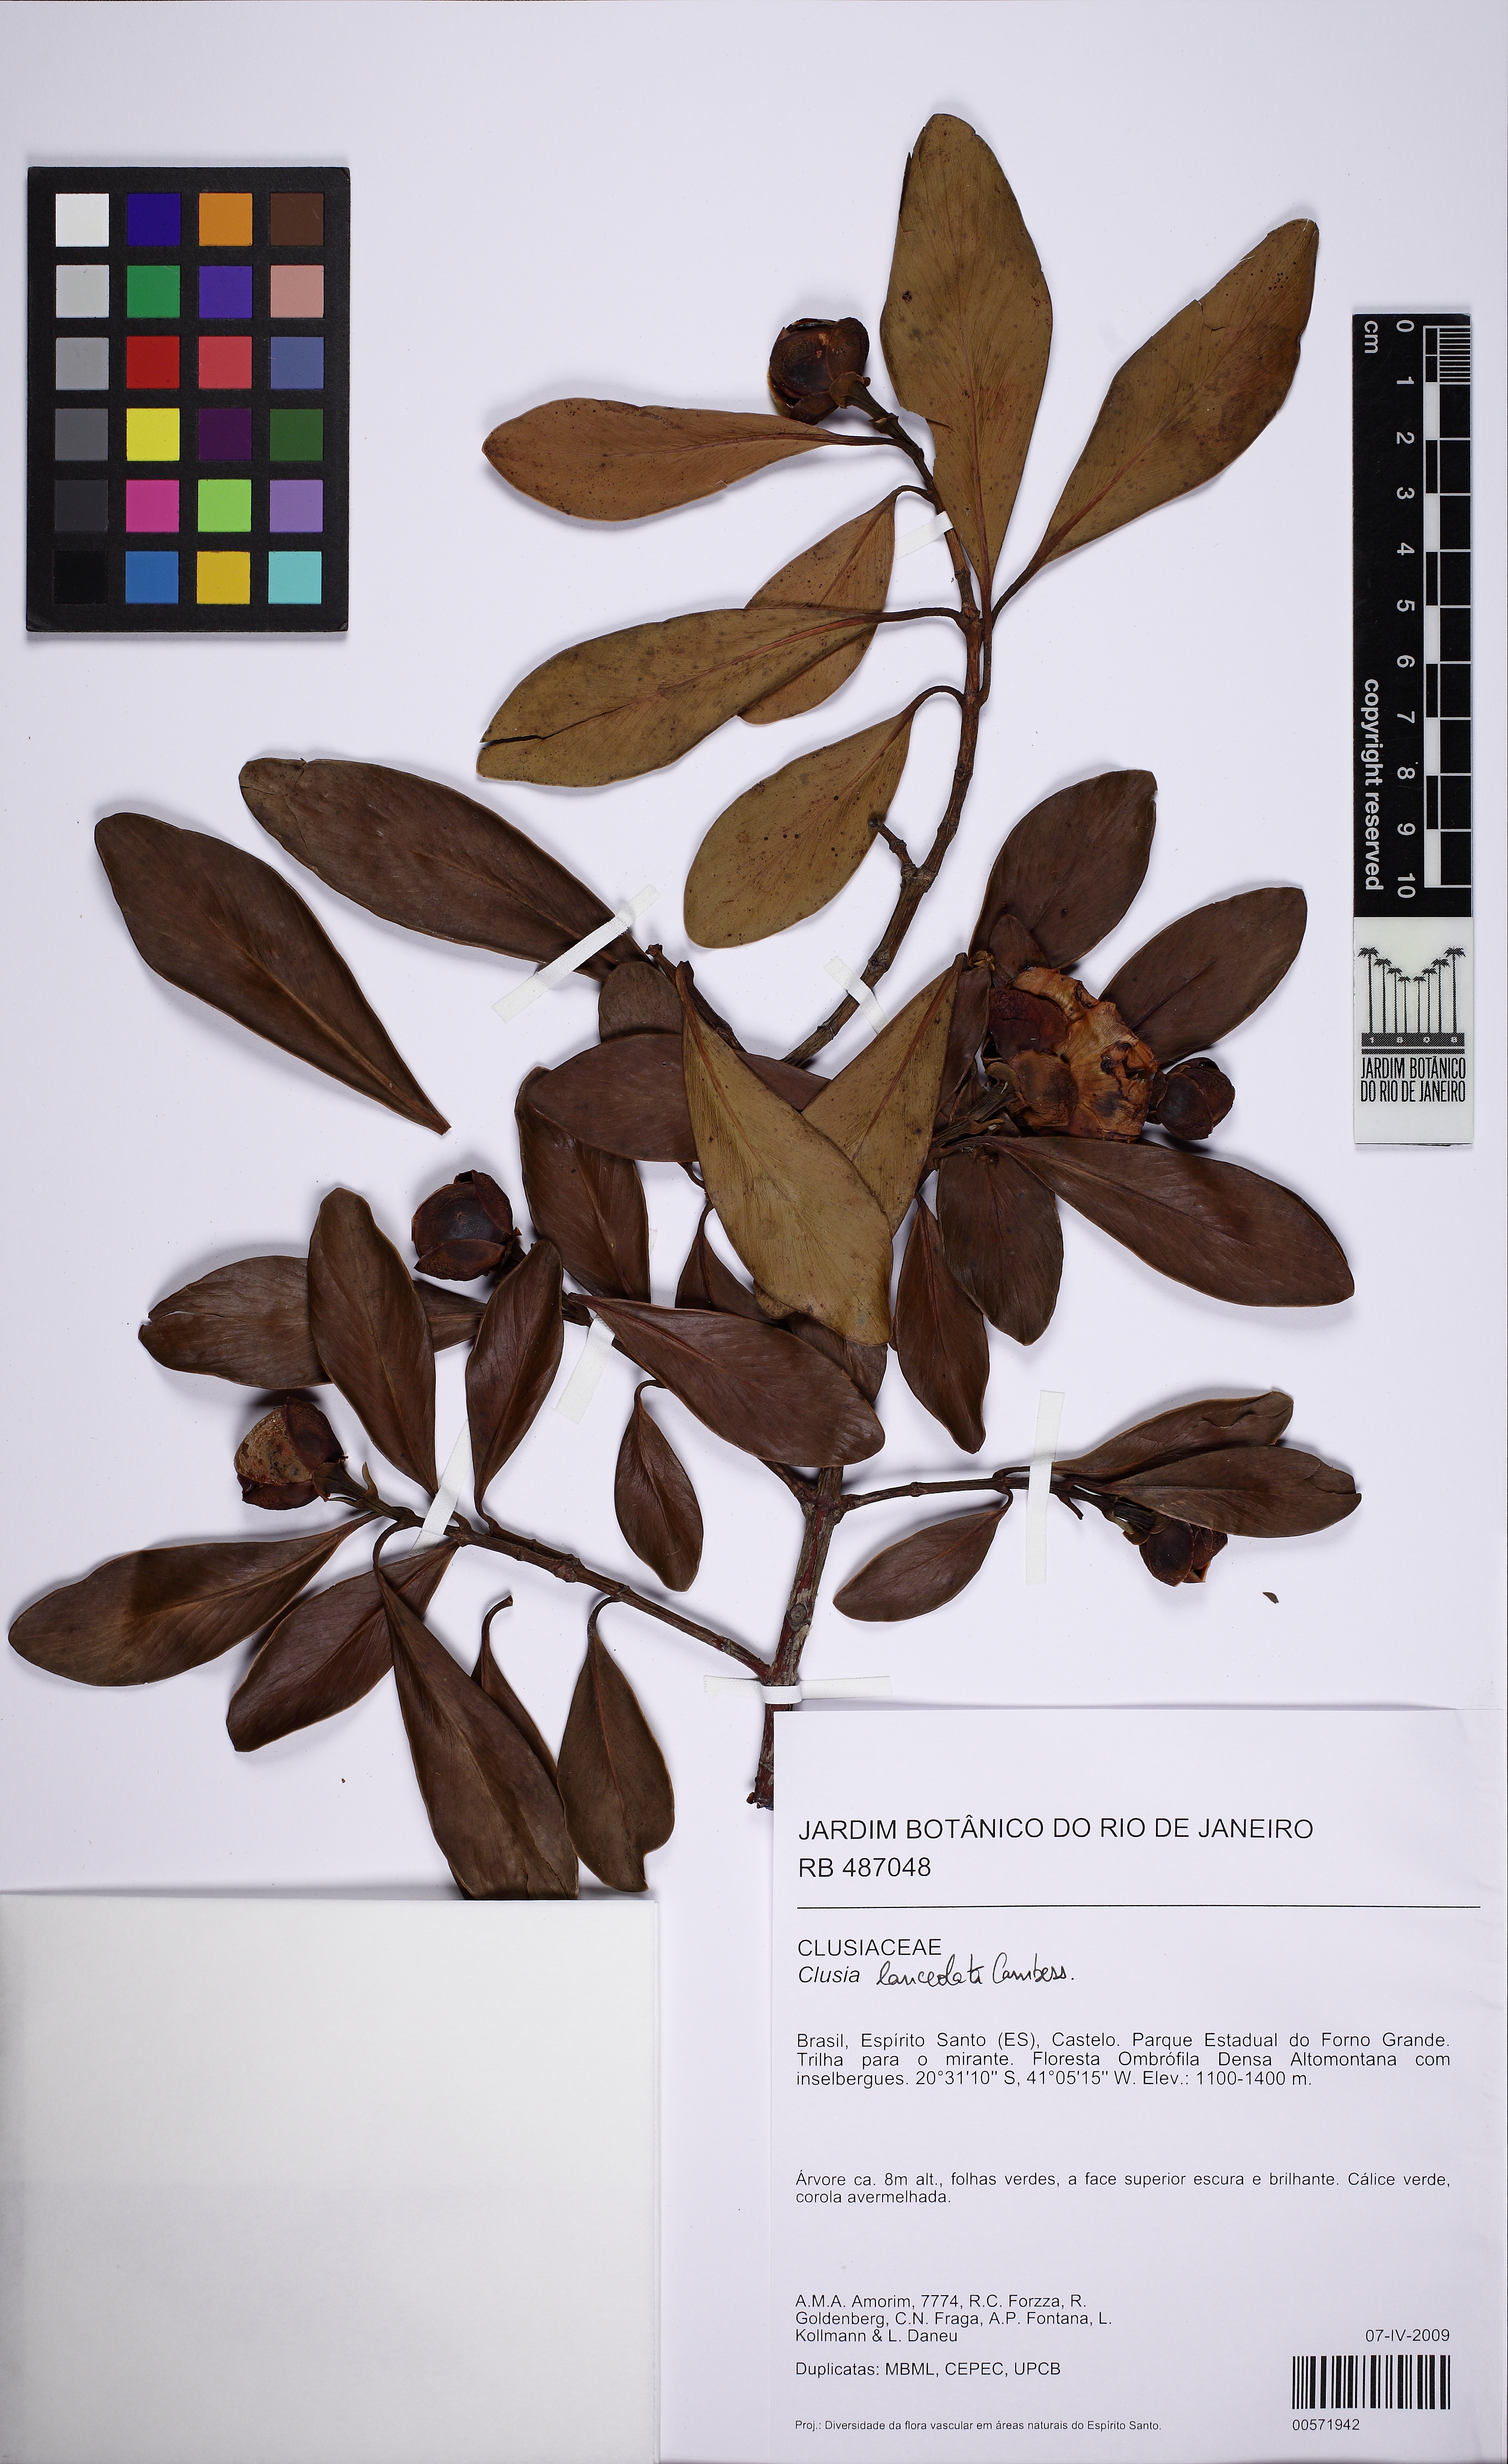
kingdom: Plantae
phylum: Tracheophyta
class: Magnoliopsida
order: Malpighiales
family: Clusiaceae
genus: Clusia
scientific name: Clusia lanceolata
